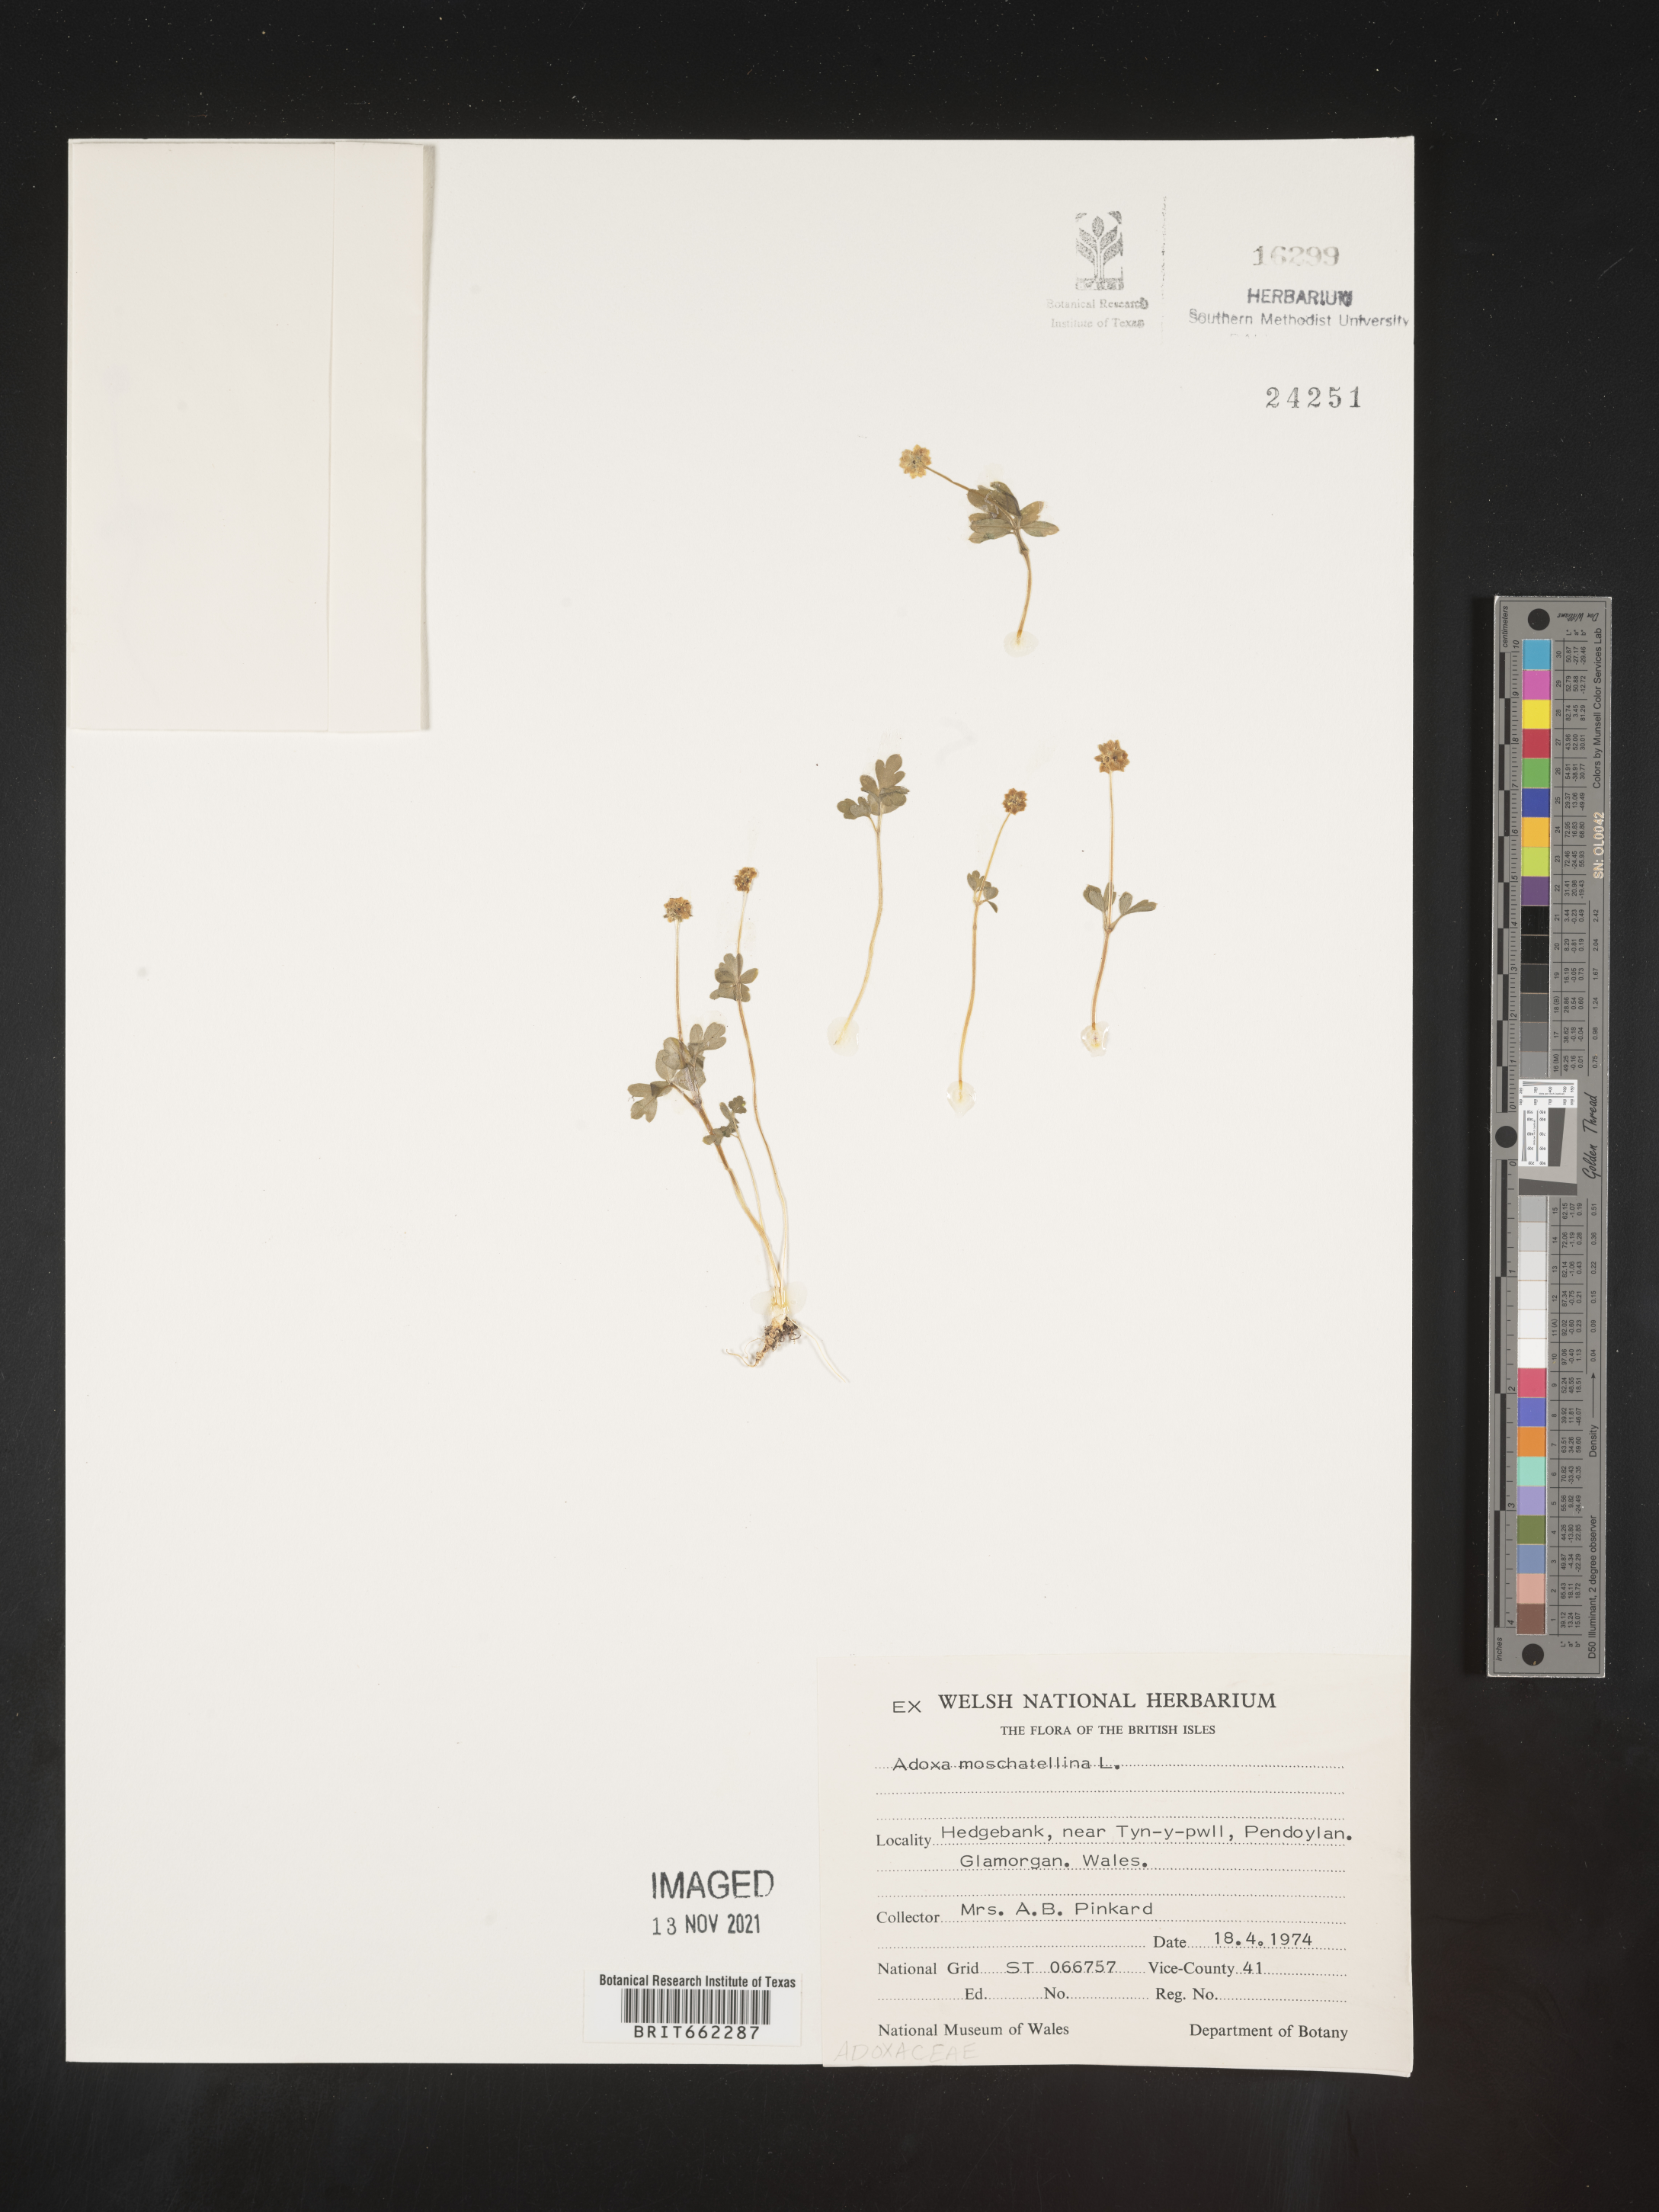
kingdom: Plantae
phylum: Tracheophyta
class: Magnoliopsida
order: Dipsacales
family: Viburnaceae
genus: Adoxa
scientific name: Adoxa
